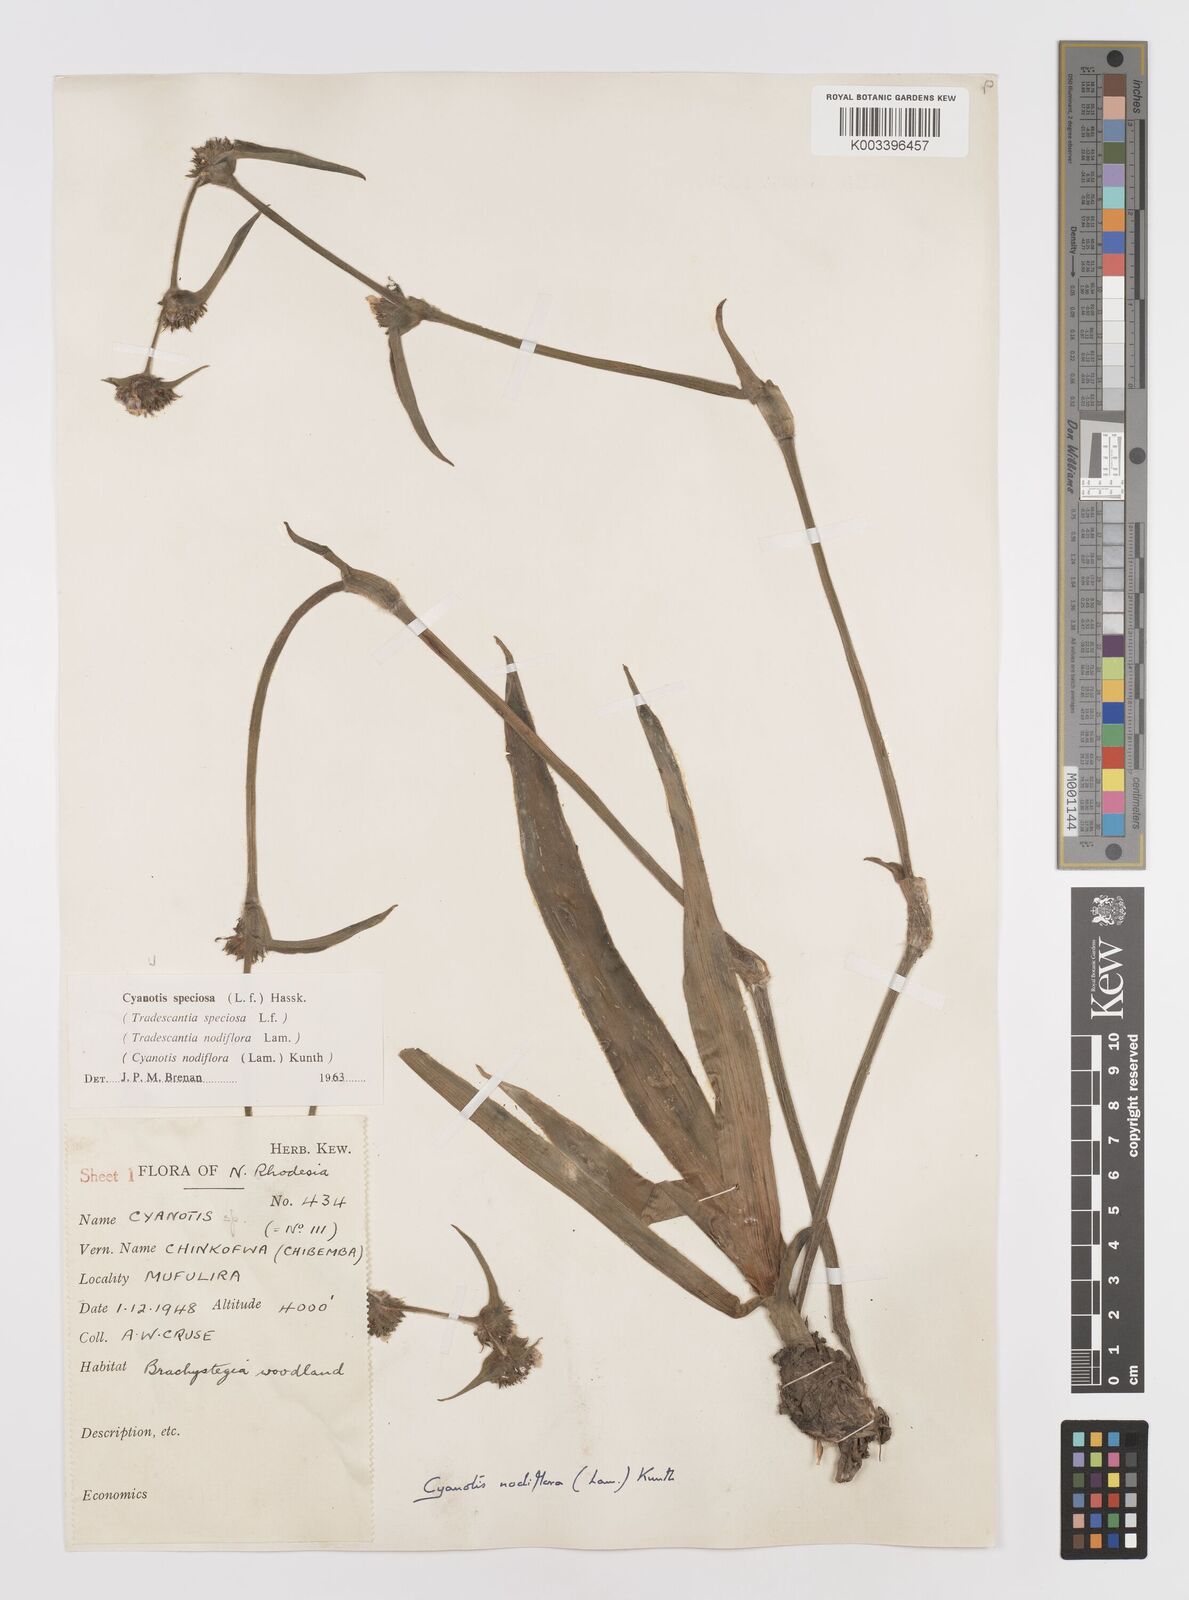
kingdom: Plantae
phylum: Tracheophyta
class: Liliopsida
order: Commelinales
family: Commelinaceae
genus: Cyanotis
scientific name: Cyanotis speciosa
